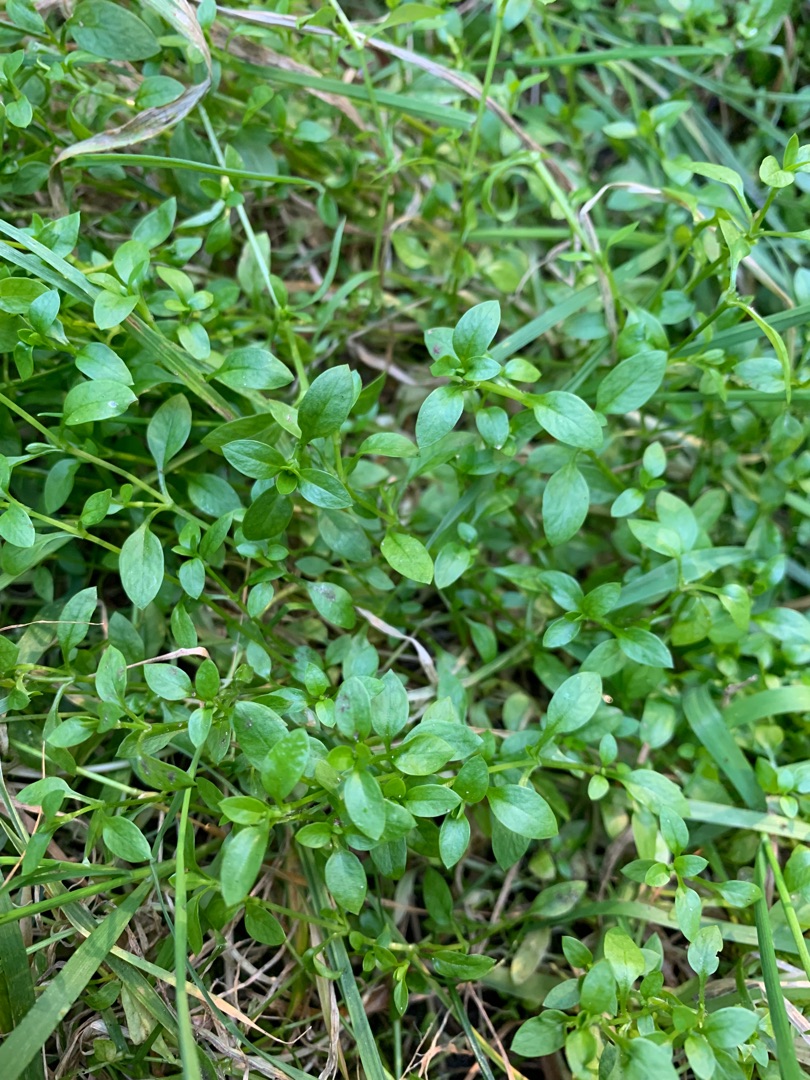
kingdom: Plantae
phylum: Tracheophyta
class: Magnoliopsida
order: Caryophyllales
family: Caryophyllaceae
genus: Stellaria
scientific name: Stellaria media
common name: Almindelig fuglegræs
